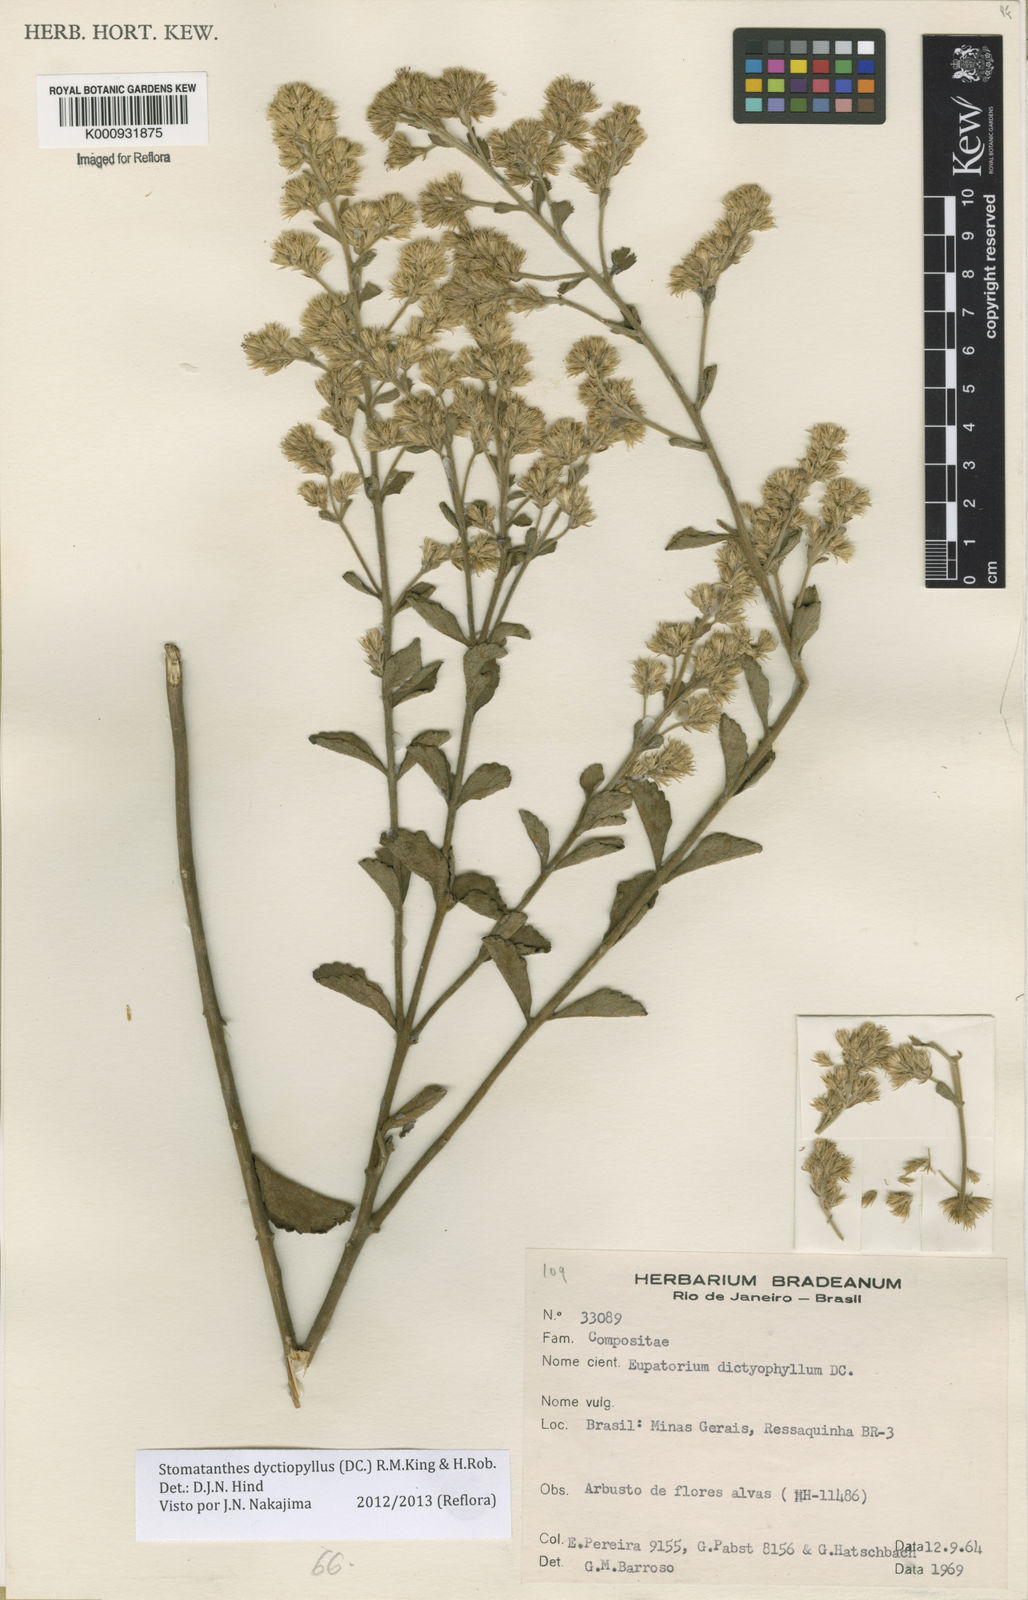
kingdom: Plantae
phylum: Tracheophyta
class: Magnoliopsida
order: Asterales
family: Asteraceae
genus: Stomatanthes
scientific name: Stomatanthes dictyophyllus
